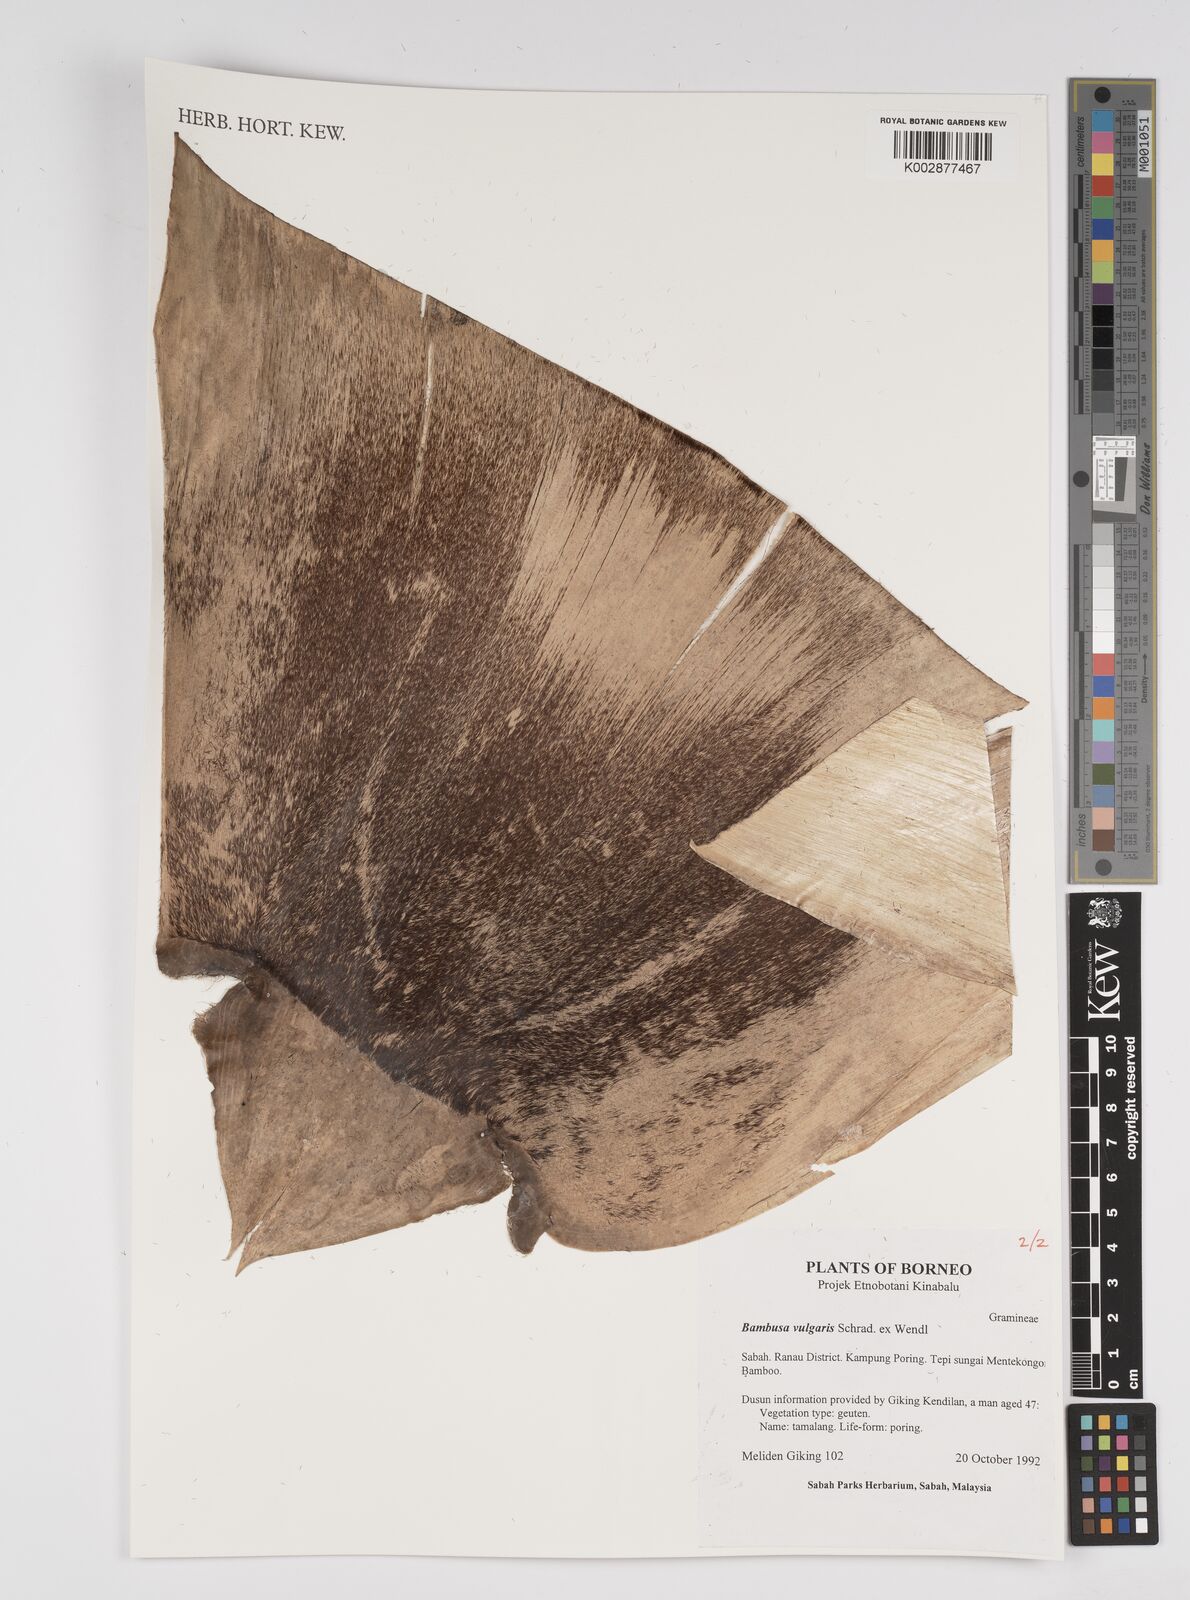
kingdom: Plantae
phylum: Tracheophyta
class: Liliopsida
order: Poales
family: Poaceae
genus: Bambusa
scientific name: Bambusa vulgaris
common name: Common bamboo
